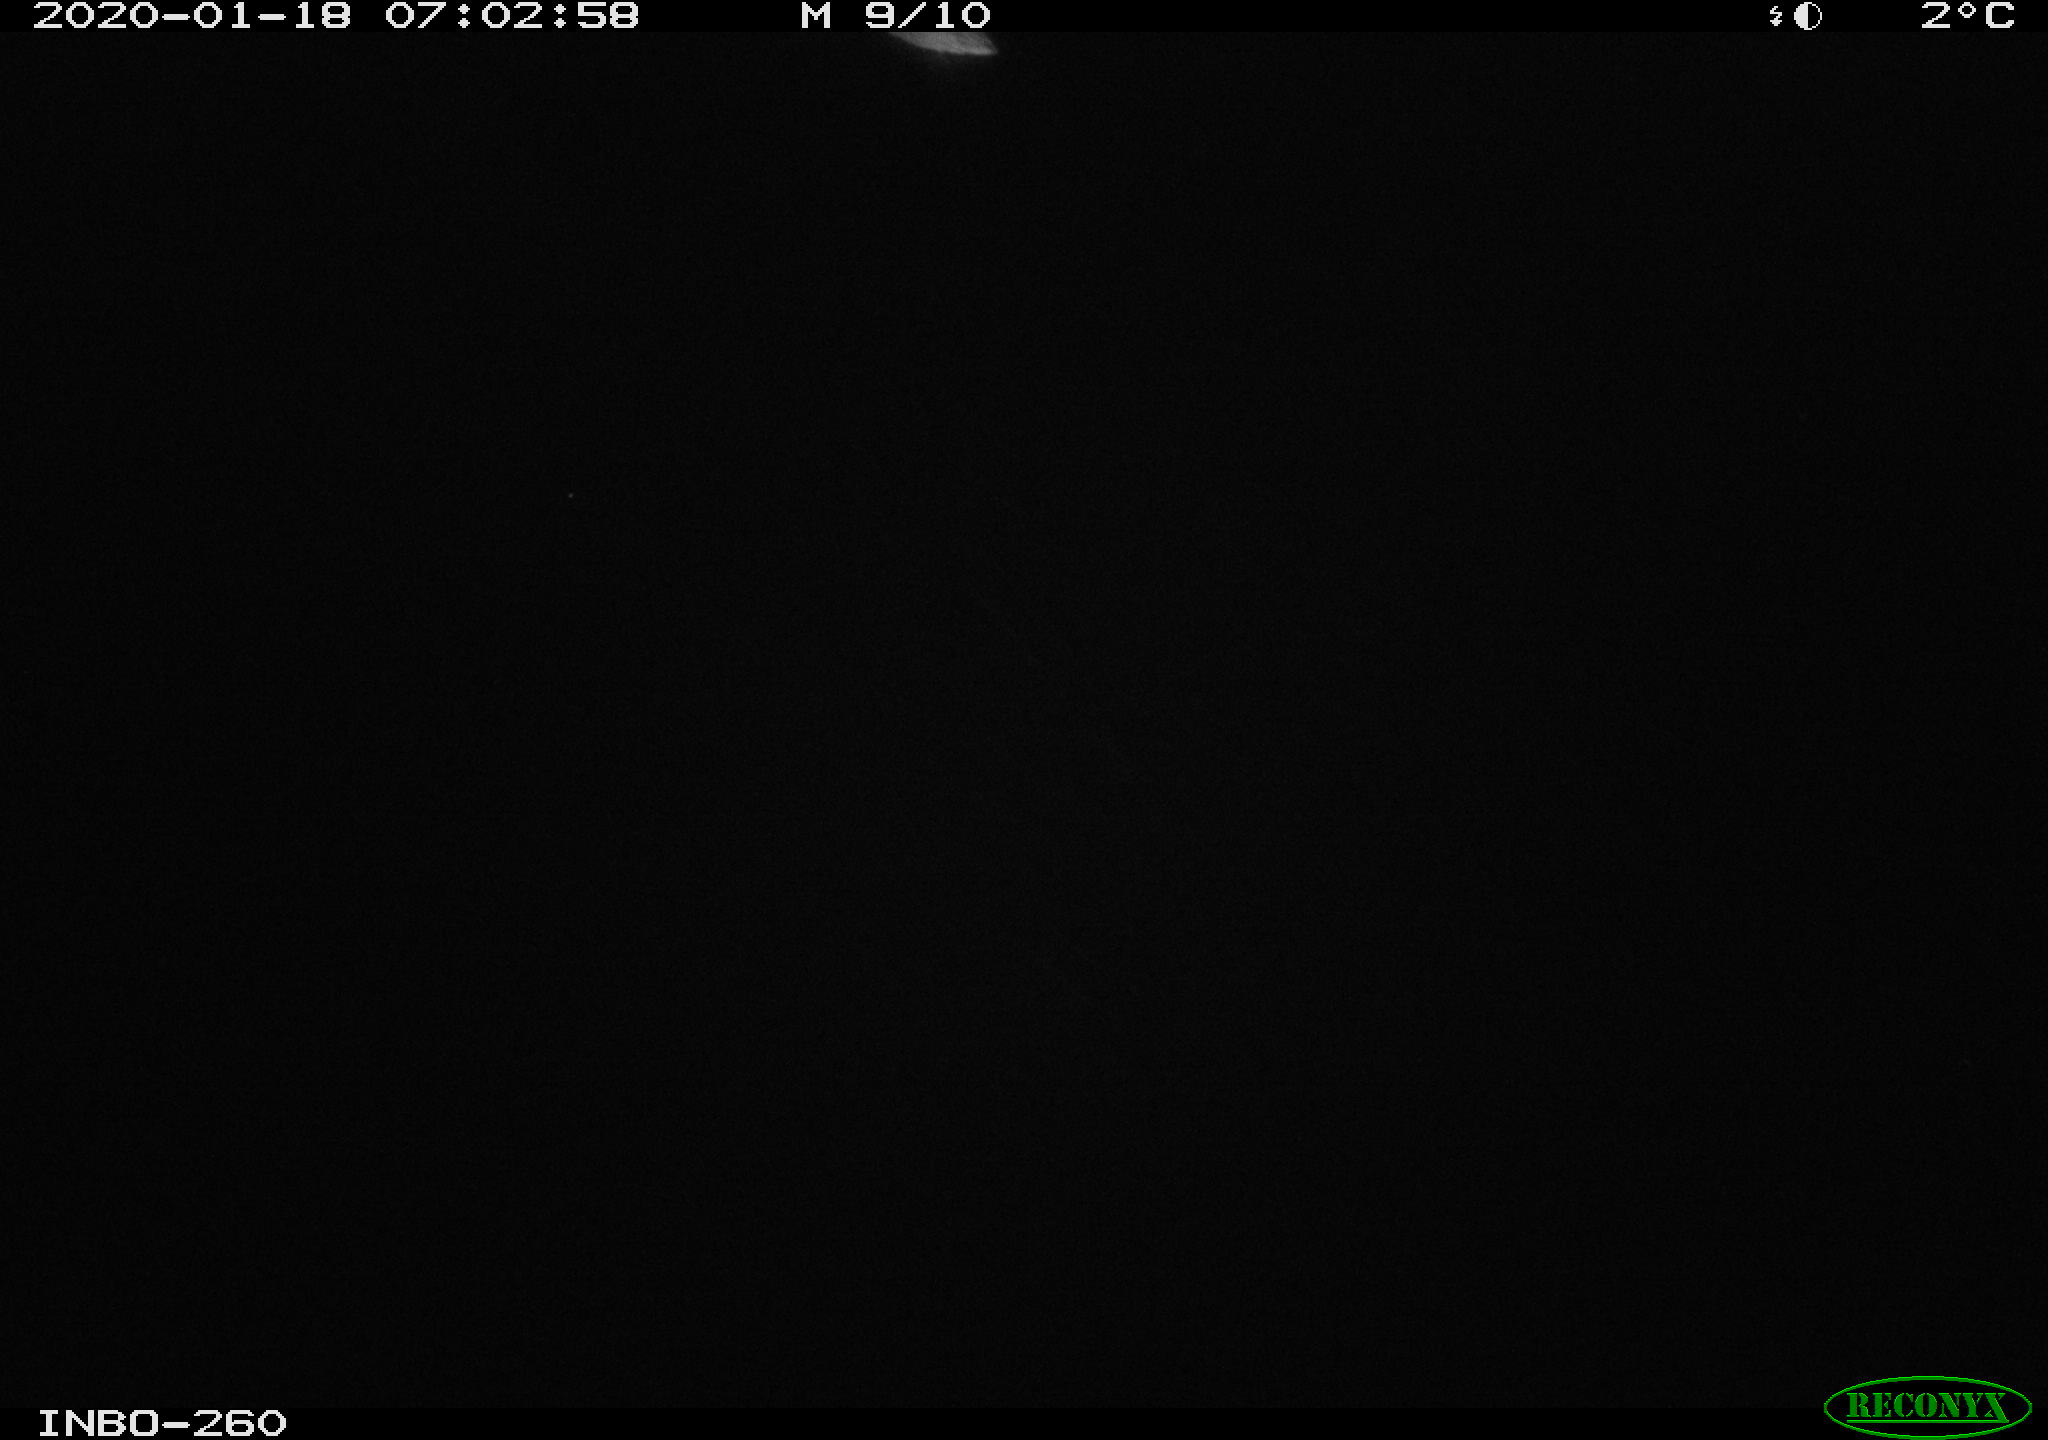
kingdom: Animalia
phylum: Chordata
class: Aves
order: Anseriformes
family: Anatidae
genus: Anas
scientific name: Anas platyrhynchos
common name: Mallard
